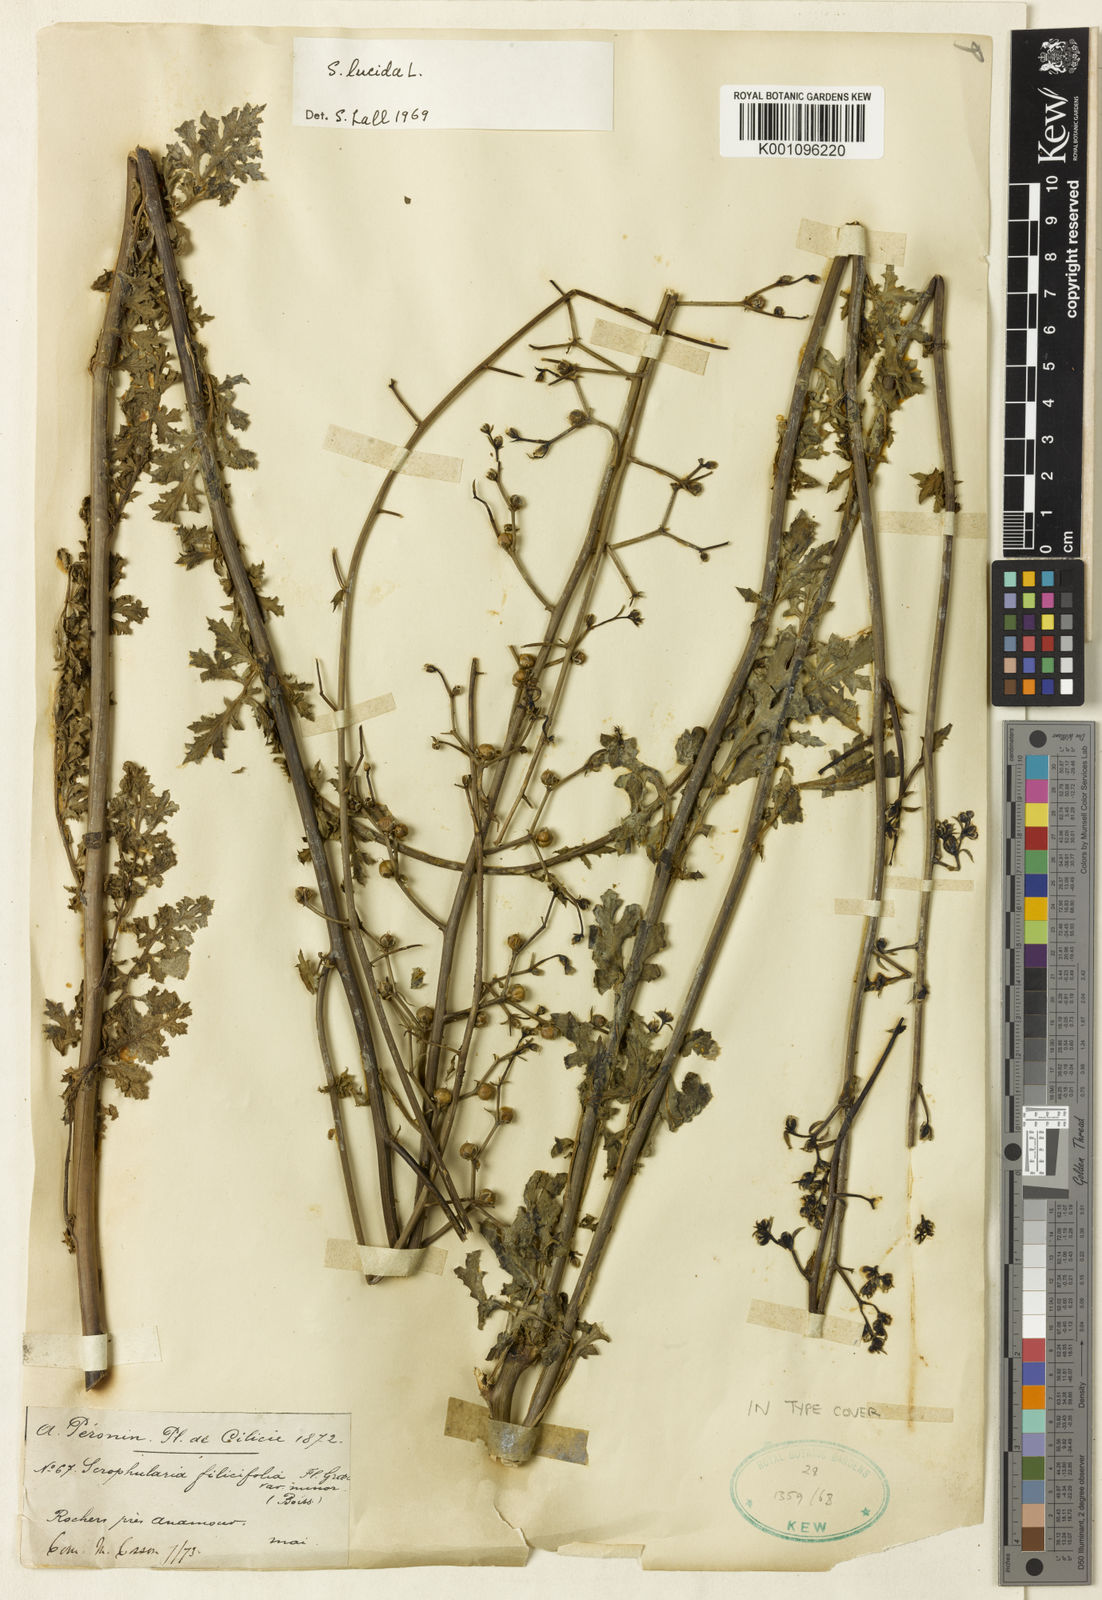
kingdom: Plantae
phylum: Tracheophyta
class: Magnoliopsida
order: Lamiales
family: Scrophulariaceae
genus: Scrophularia
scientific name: Scrophularia lucida
